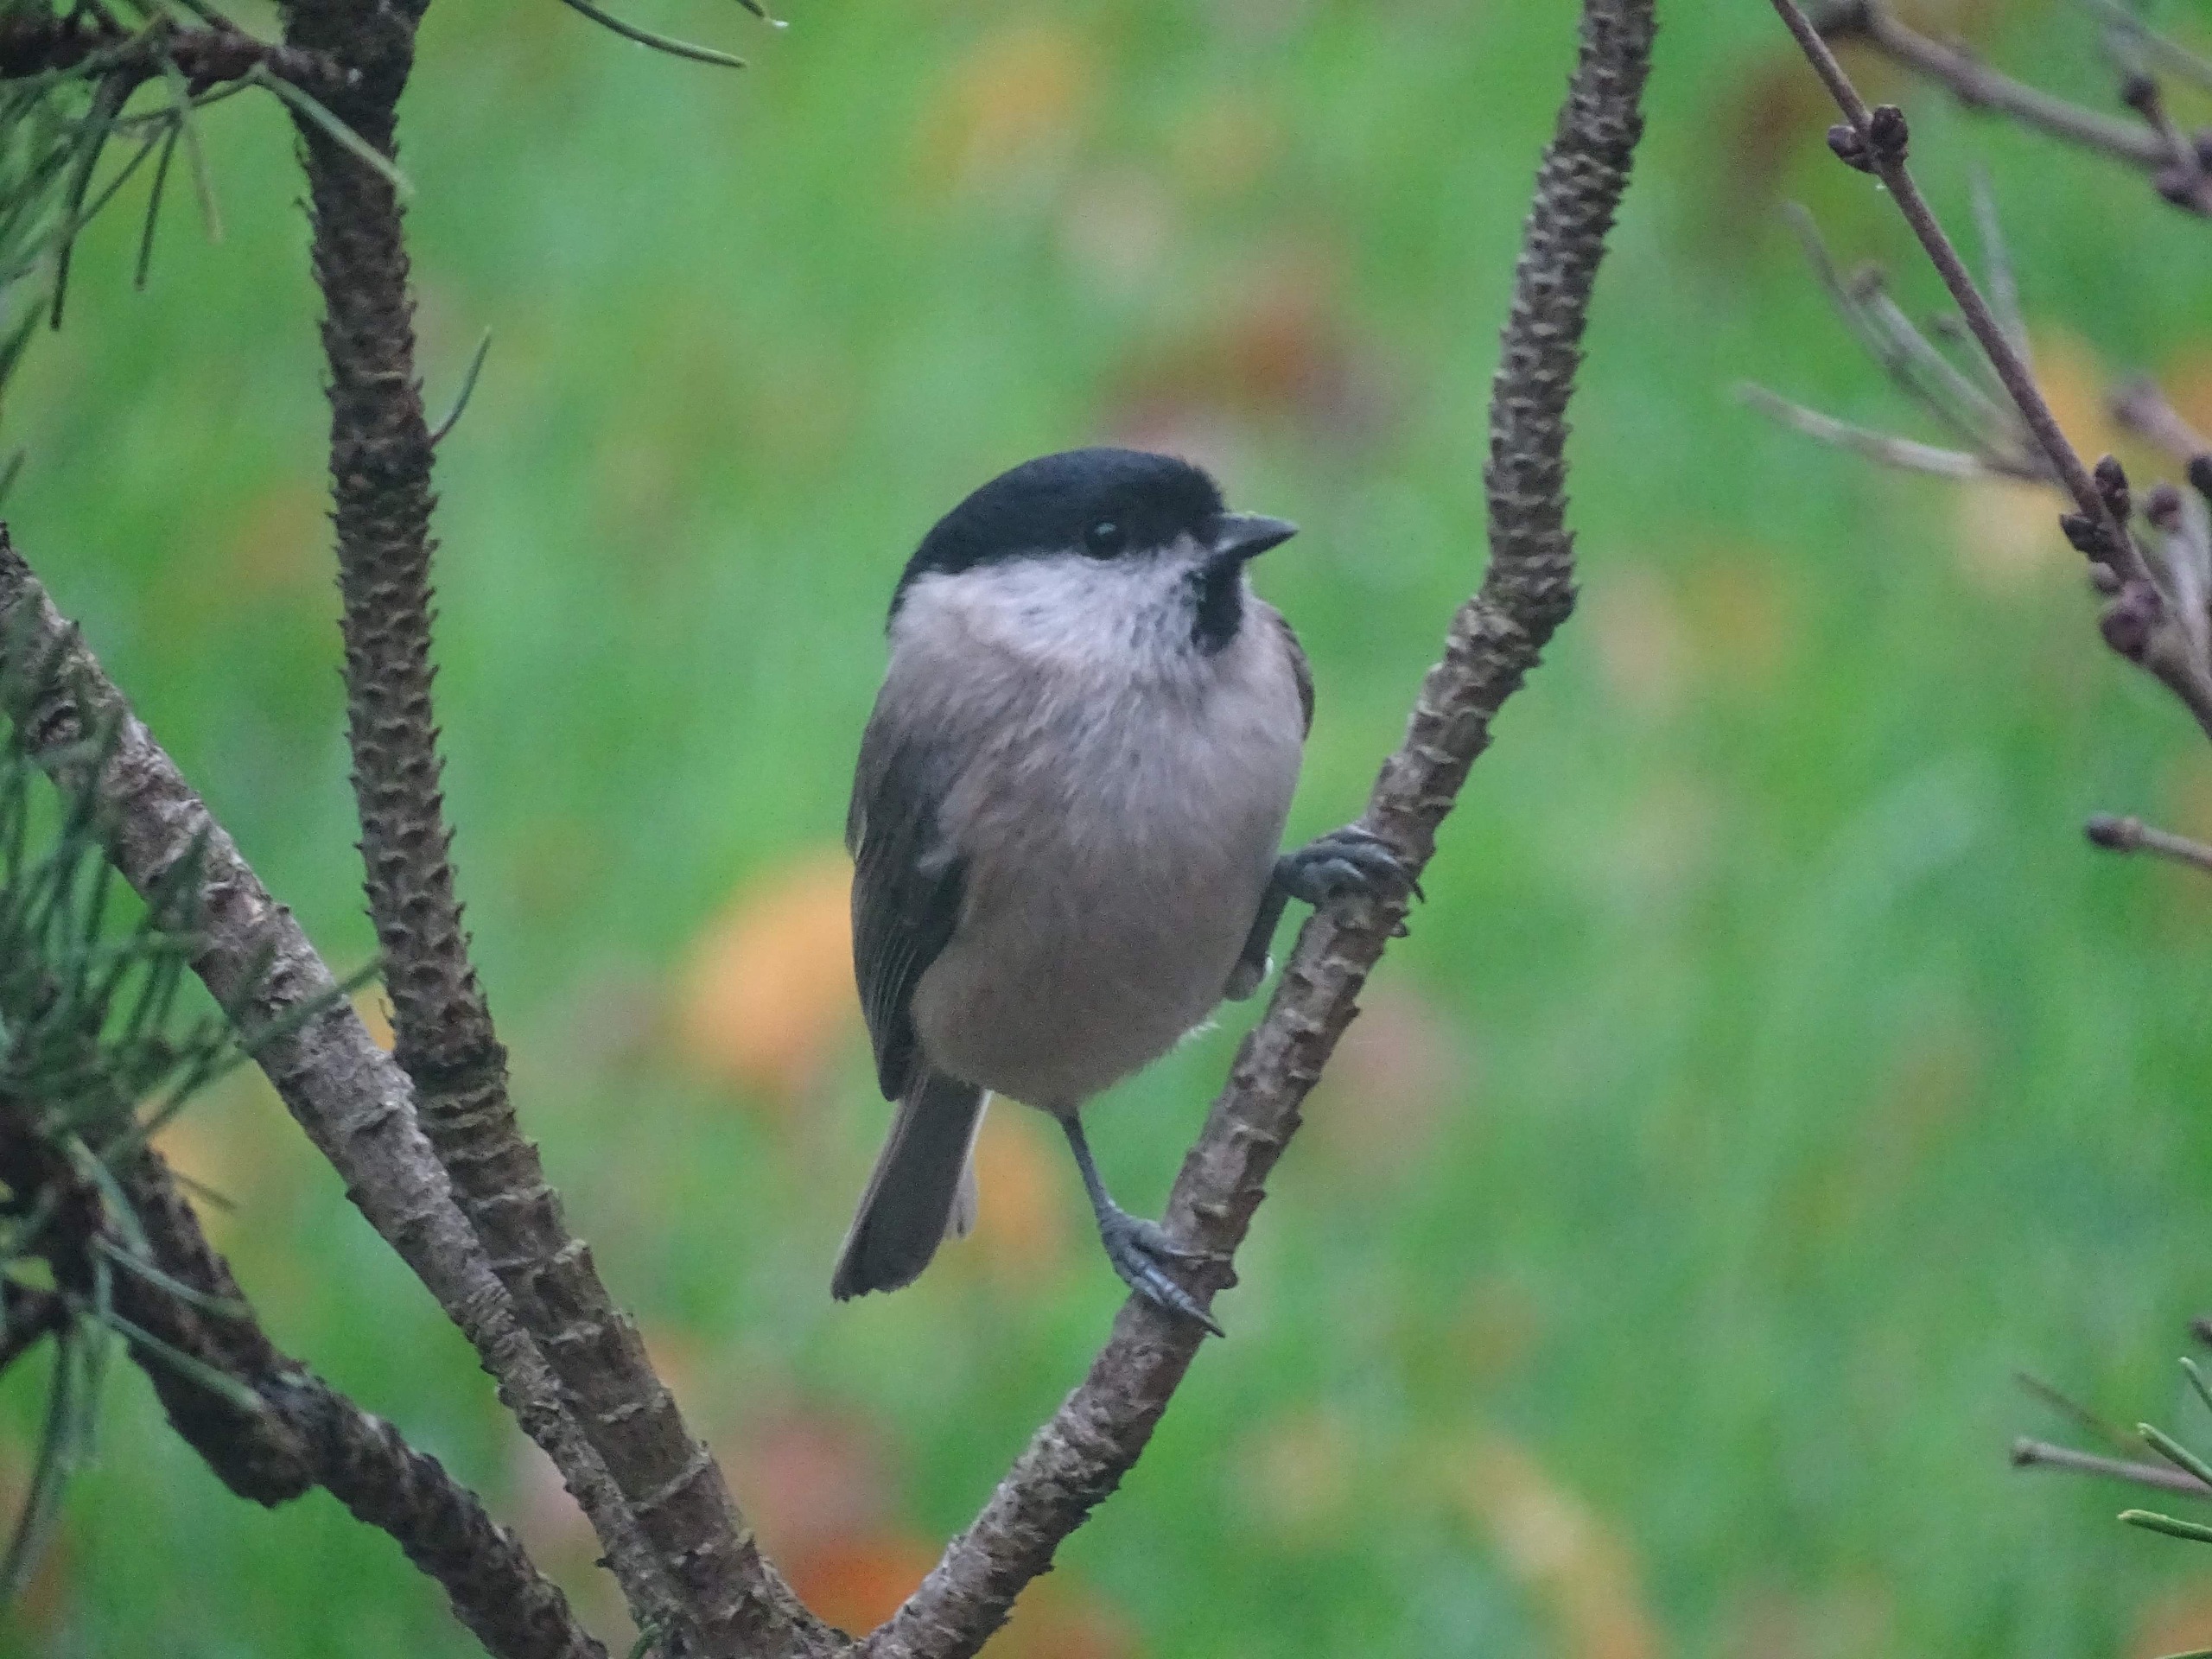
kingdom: Animalia
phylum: Chordata
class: Aves
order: Passeriformes
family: Paridae
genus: Poecile
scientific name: Poecile palustris
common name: Sumpmejse
